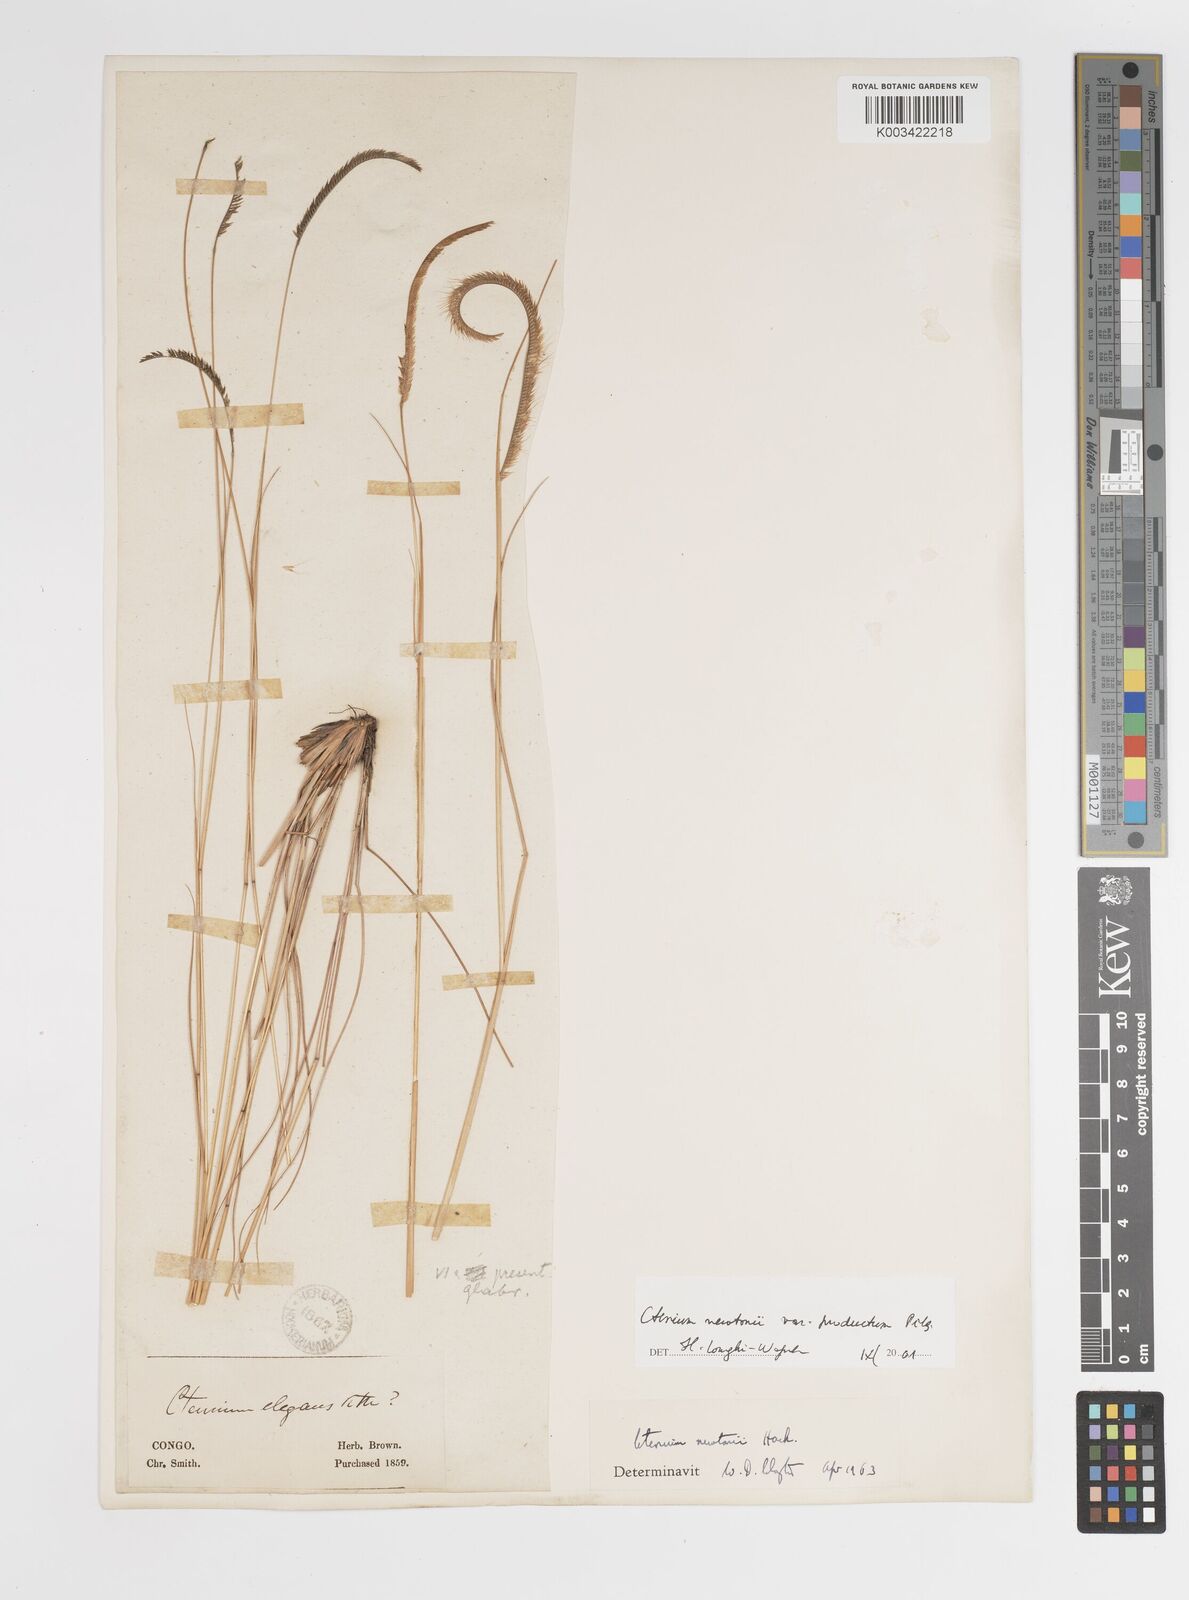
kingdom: Plantae
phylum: Tracheophyta
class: Liliopsida
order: Poales
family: Poaceae
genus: Ctenium
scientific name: Ctenium newtonii
